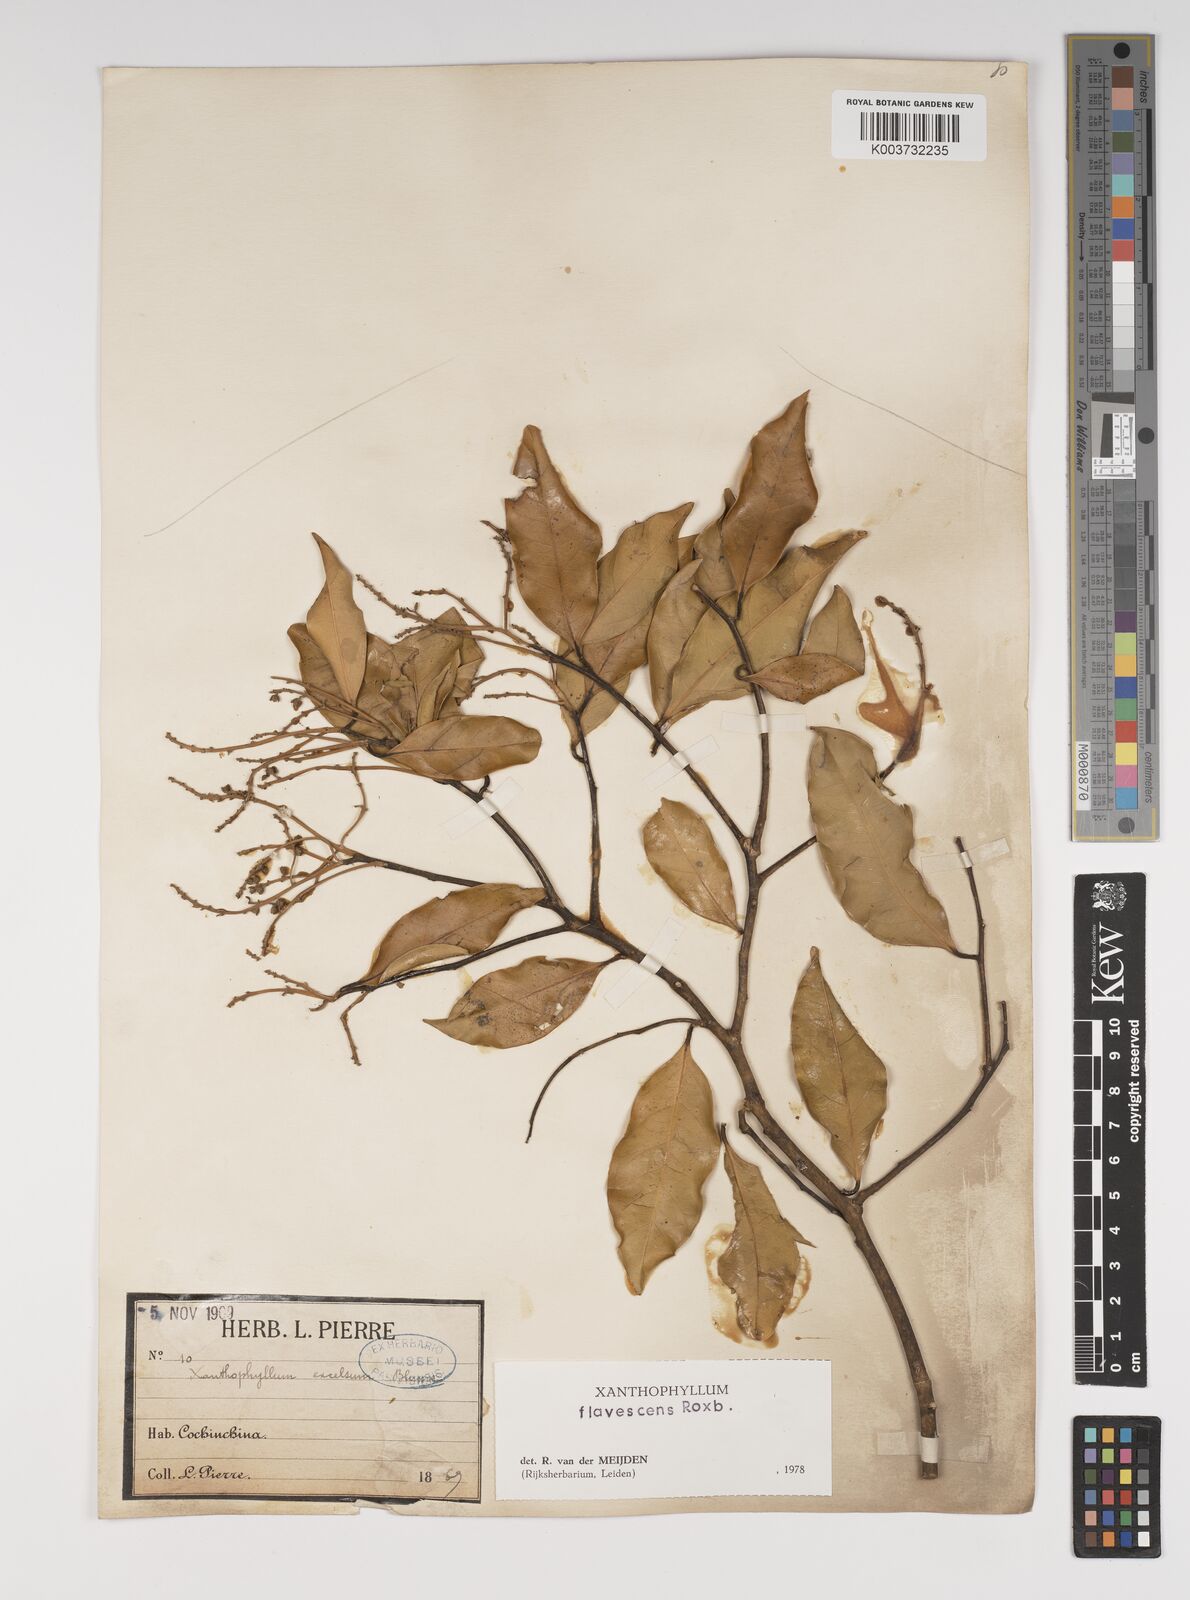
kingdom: Plantae
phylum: Tracheophyta
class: Magnoliopsida
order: Fabales
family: Polygalaceae
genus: Xanthophyllum
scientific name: Xanthophyllum flavescens
